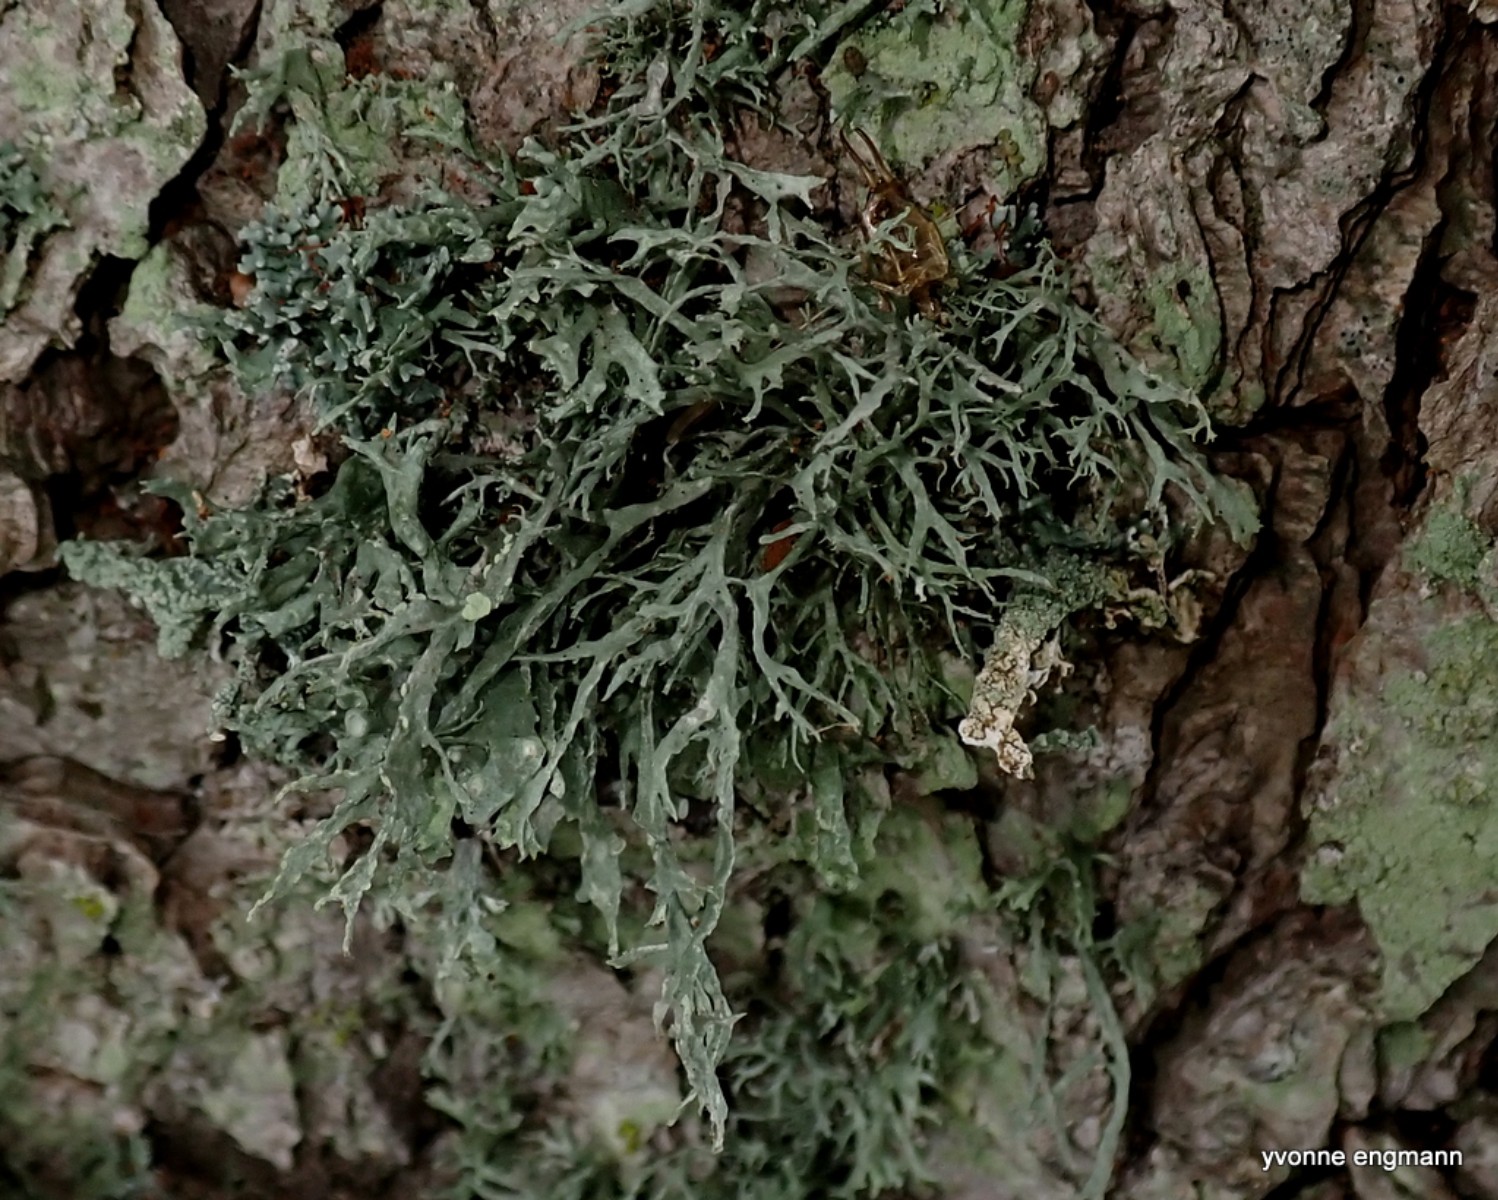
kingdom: Fungi
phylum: Ascomycota
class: Lecanoromycetes
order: Lecanorales
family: Ramalinaceae
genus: Ramalina
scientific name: Ramalina farinacea
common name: melet grenlav
